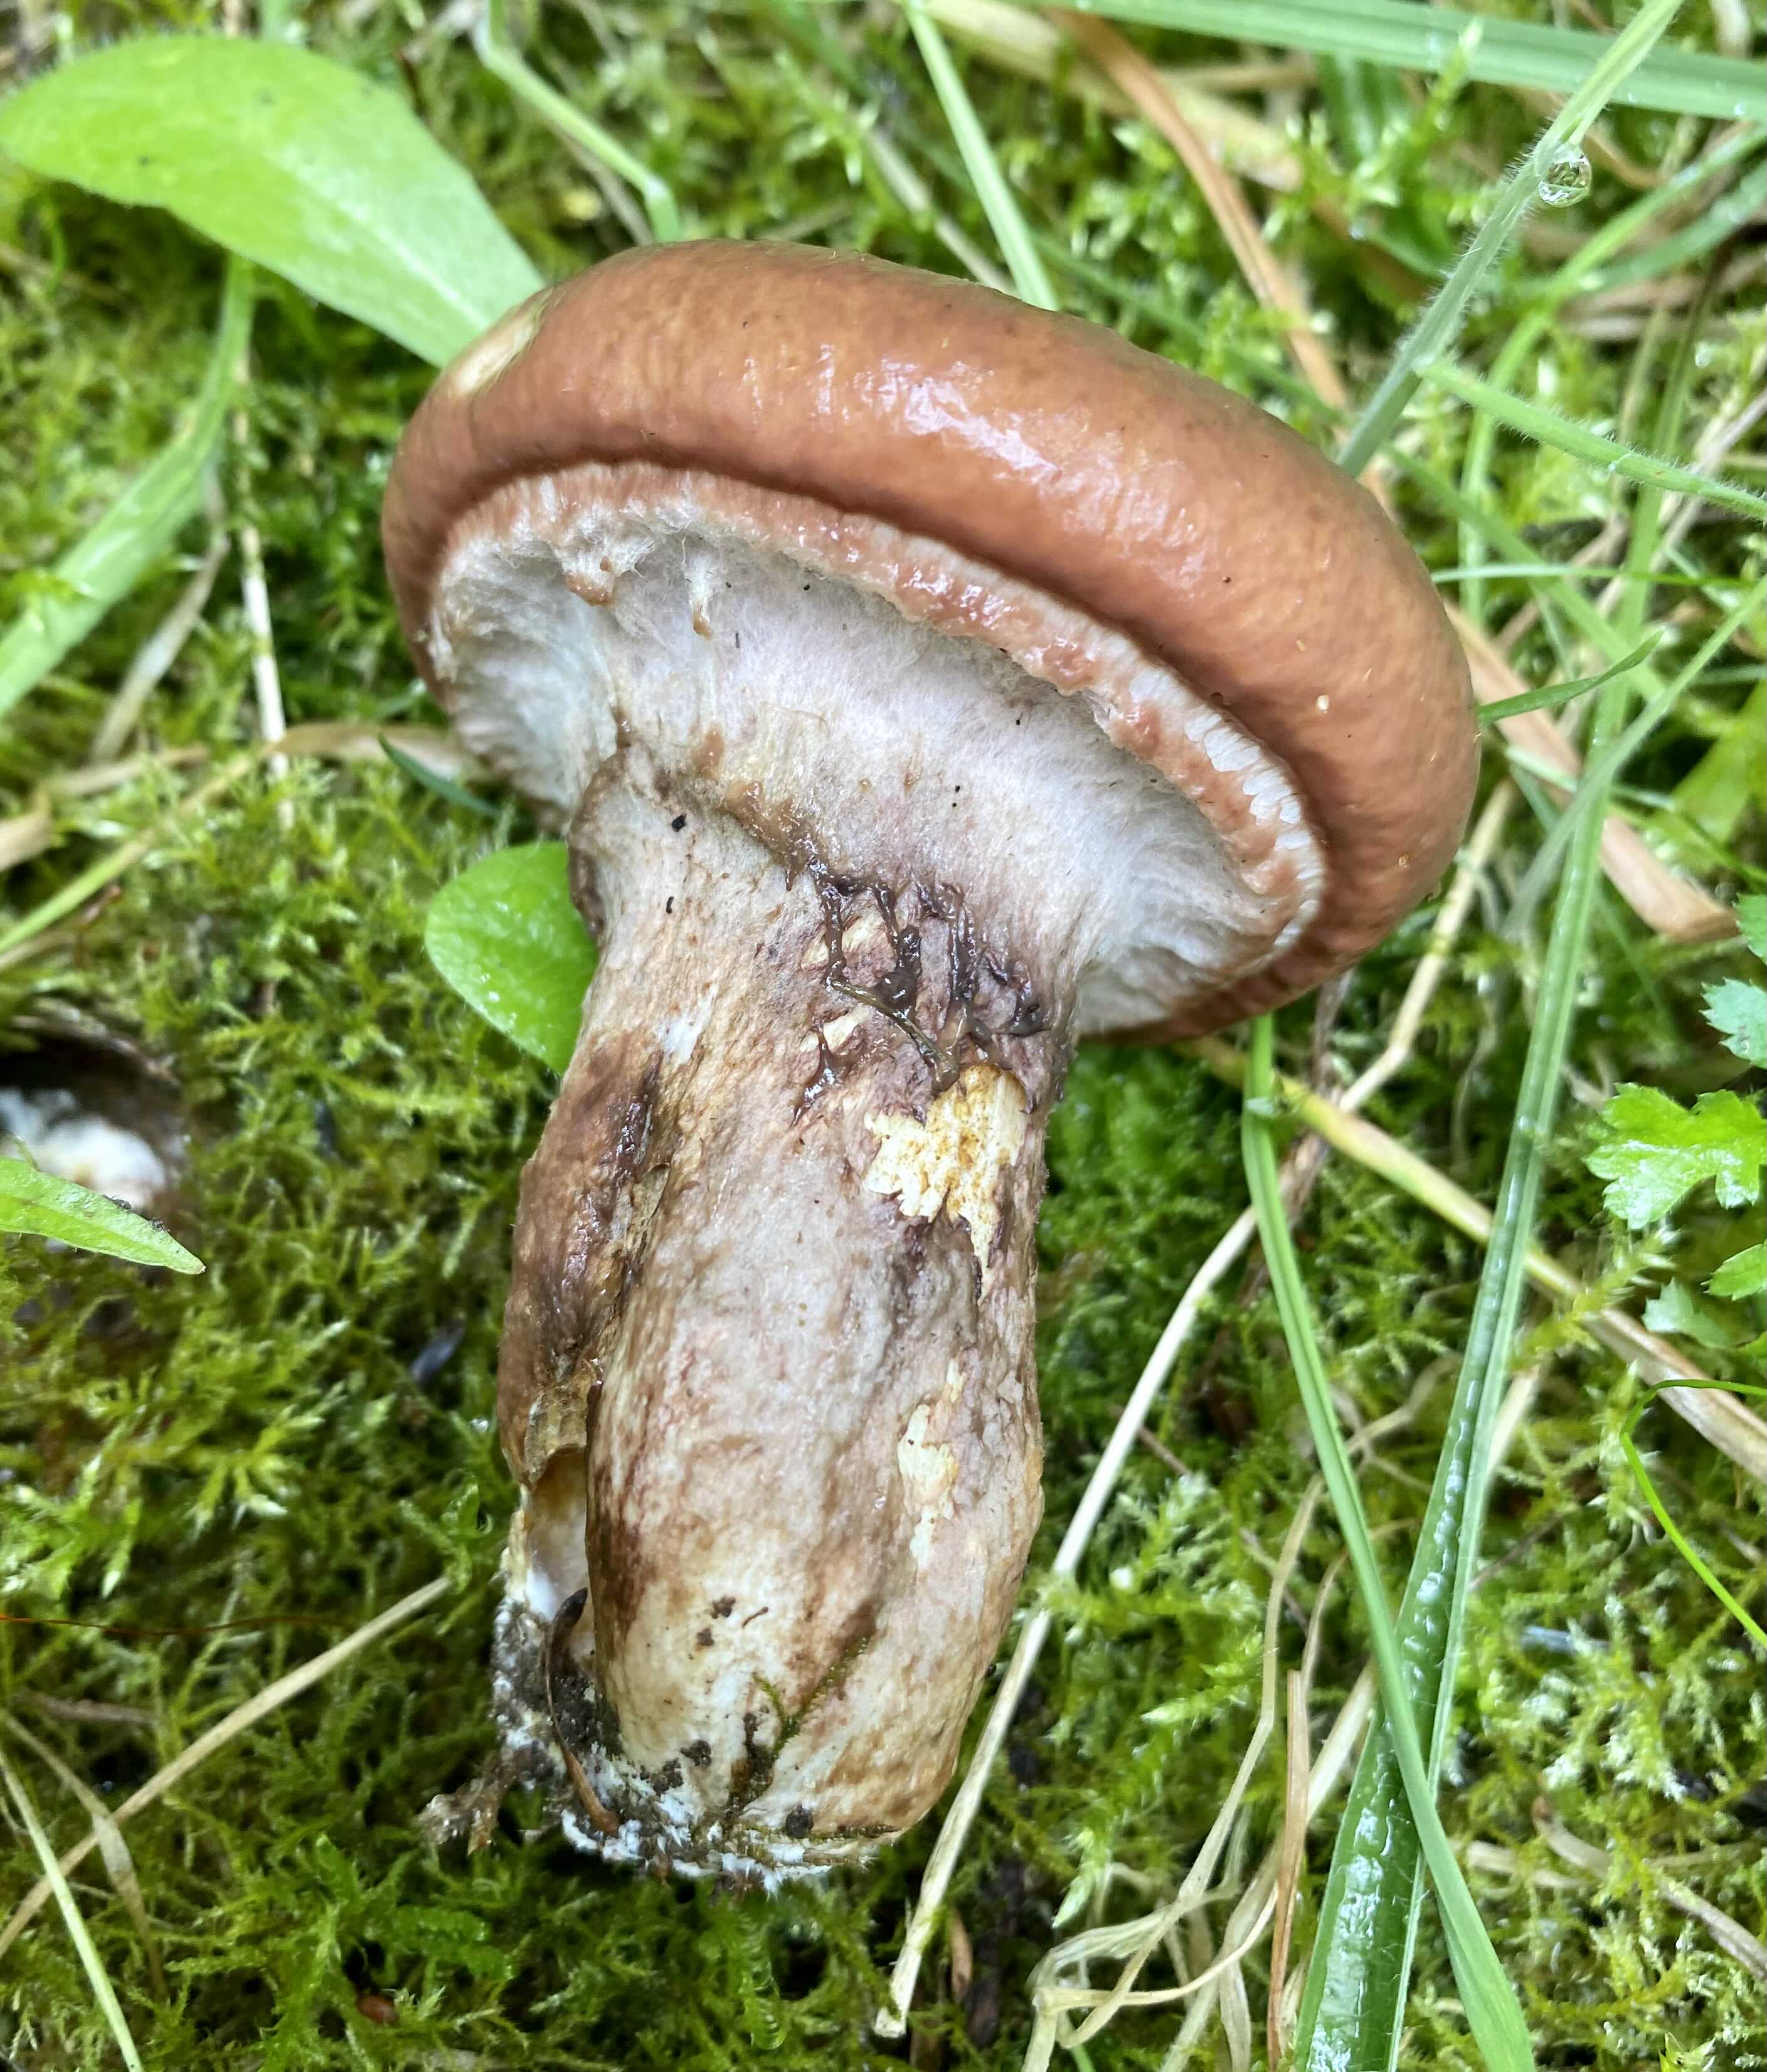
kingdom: Fungi
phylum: Basidiomycota
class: Agaricomycetes
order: Boletales
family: Gomphidiaceae
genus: Gomphidius
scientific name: Gomphidius glutinosus
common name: grå slimslør
